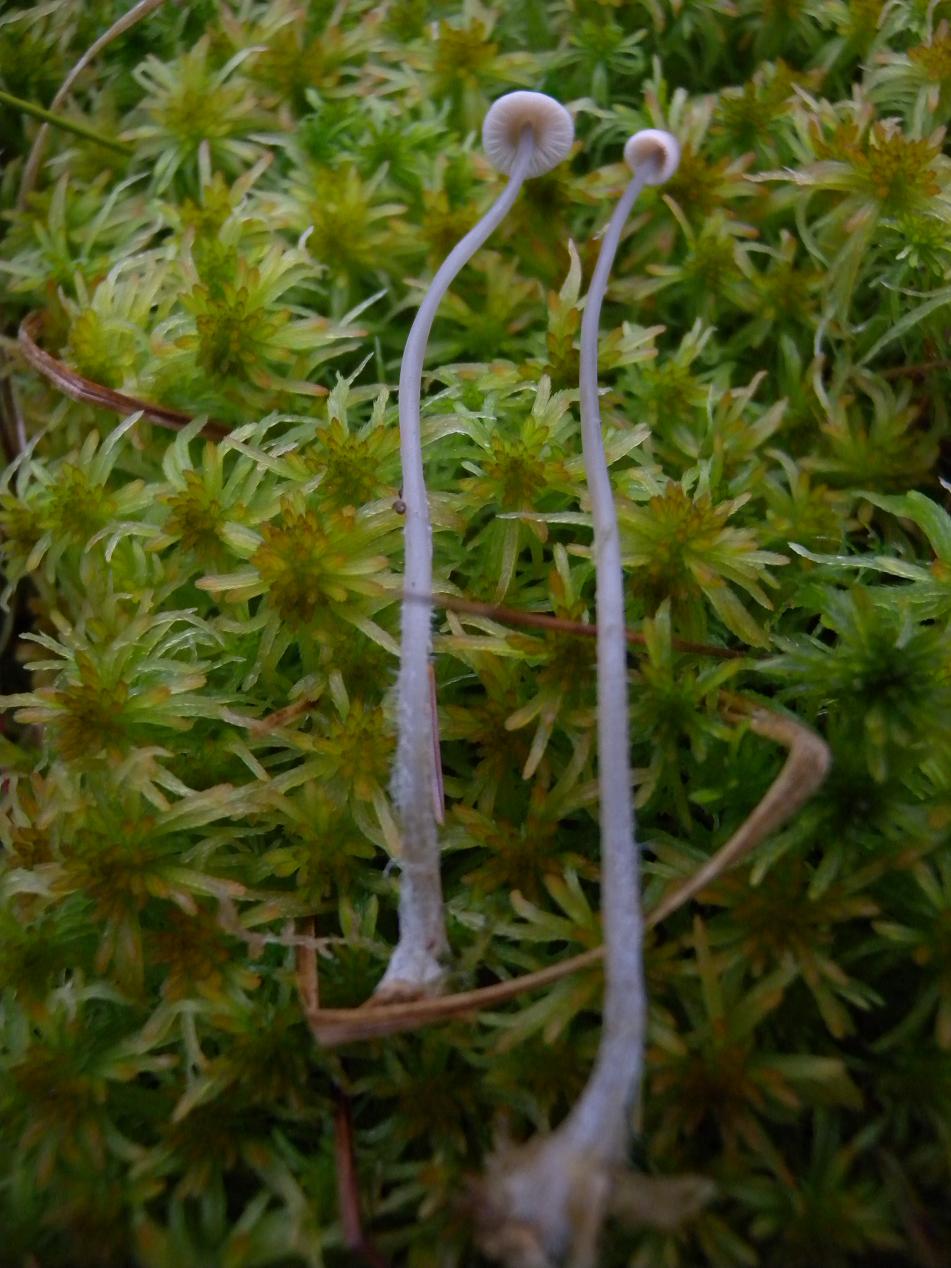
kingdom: Fungi
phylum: Basidiomycota
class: Agaricomycetes
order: Agaricales
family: Mycenaceae
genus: Mycena
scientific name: Mycena filopes
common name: jod-huesvamp
